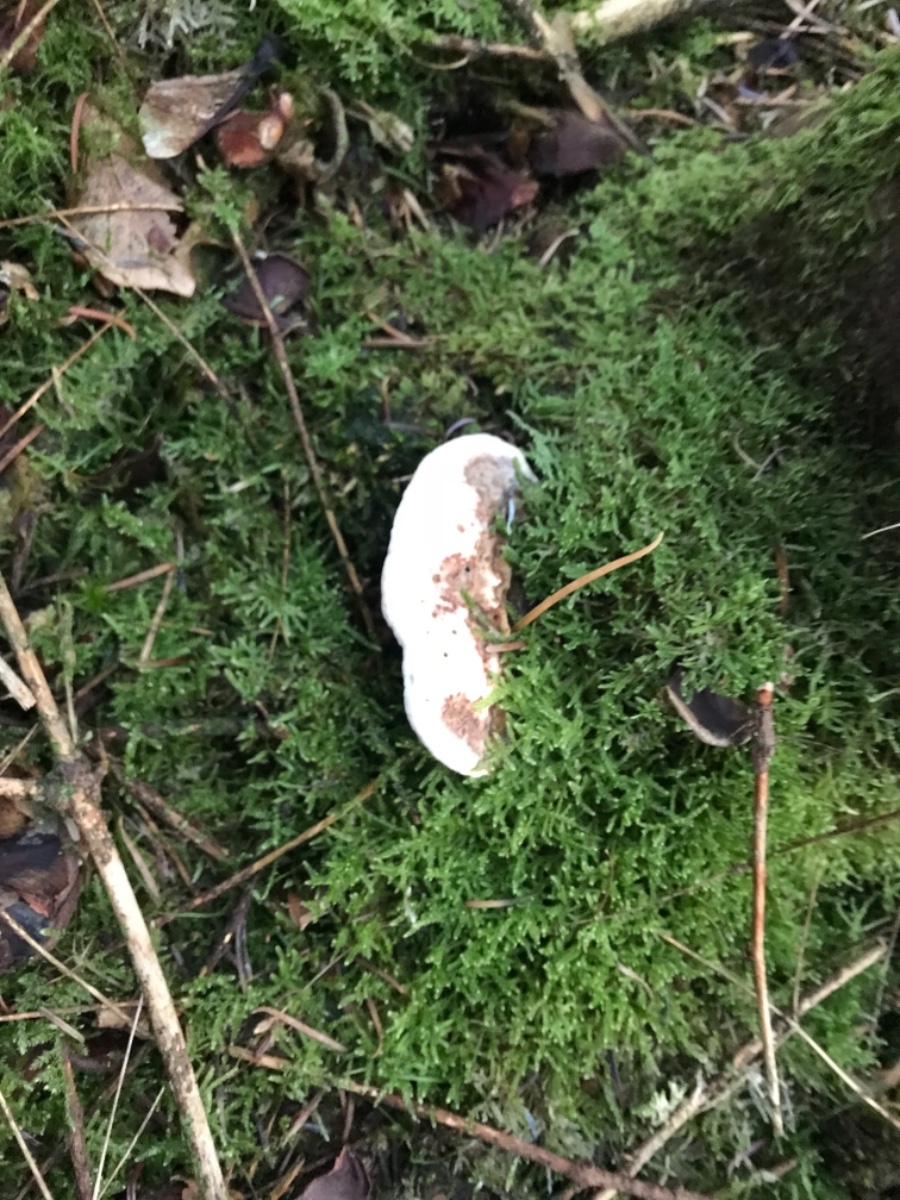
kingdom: Fungi
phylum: Basidiomycota
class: Agaricomycetes
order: Polyporales
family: Fomitopsidaceae
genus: Fomitopsis
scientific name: Fomitopsis pinicola
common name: randbæltet hovporesvamp
